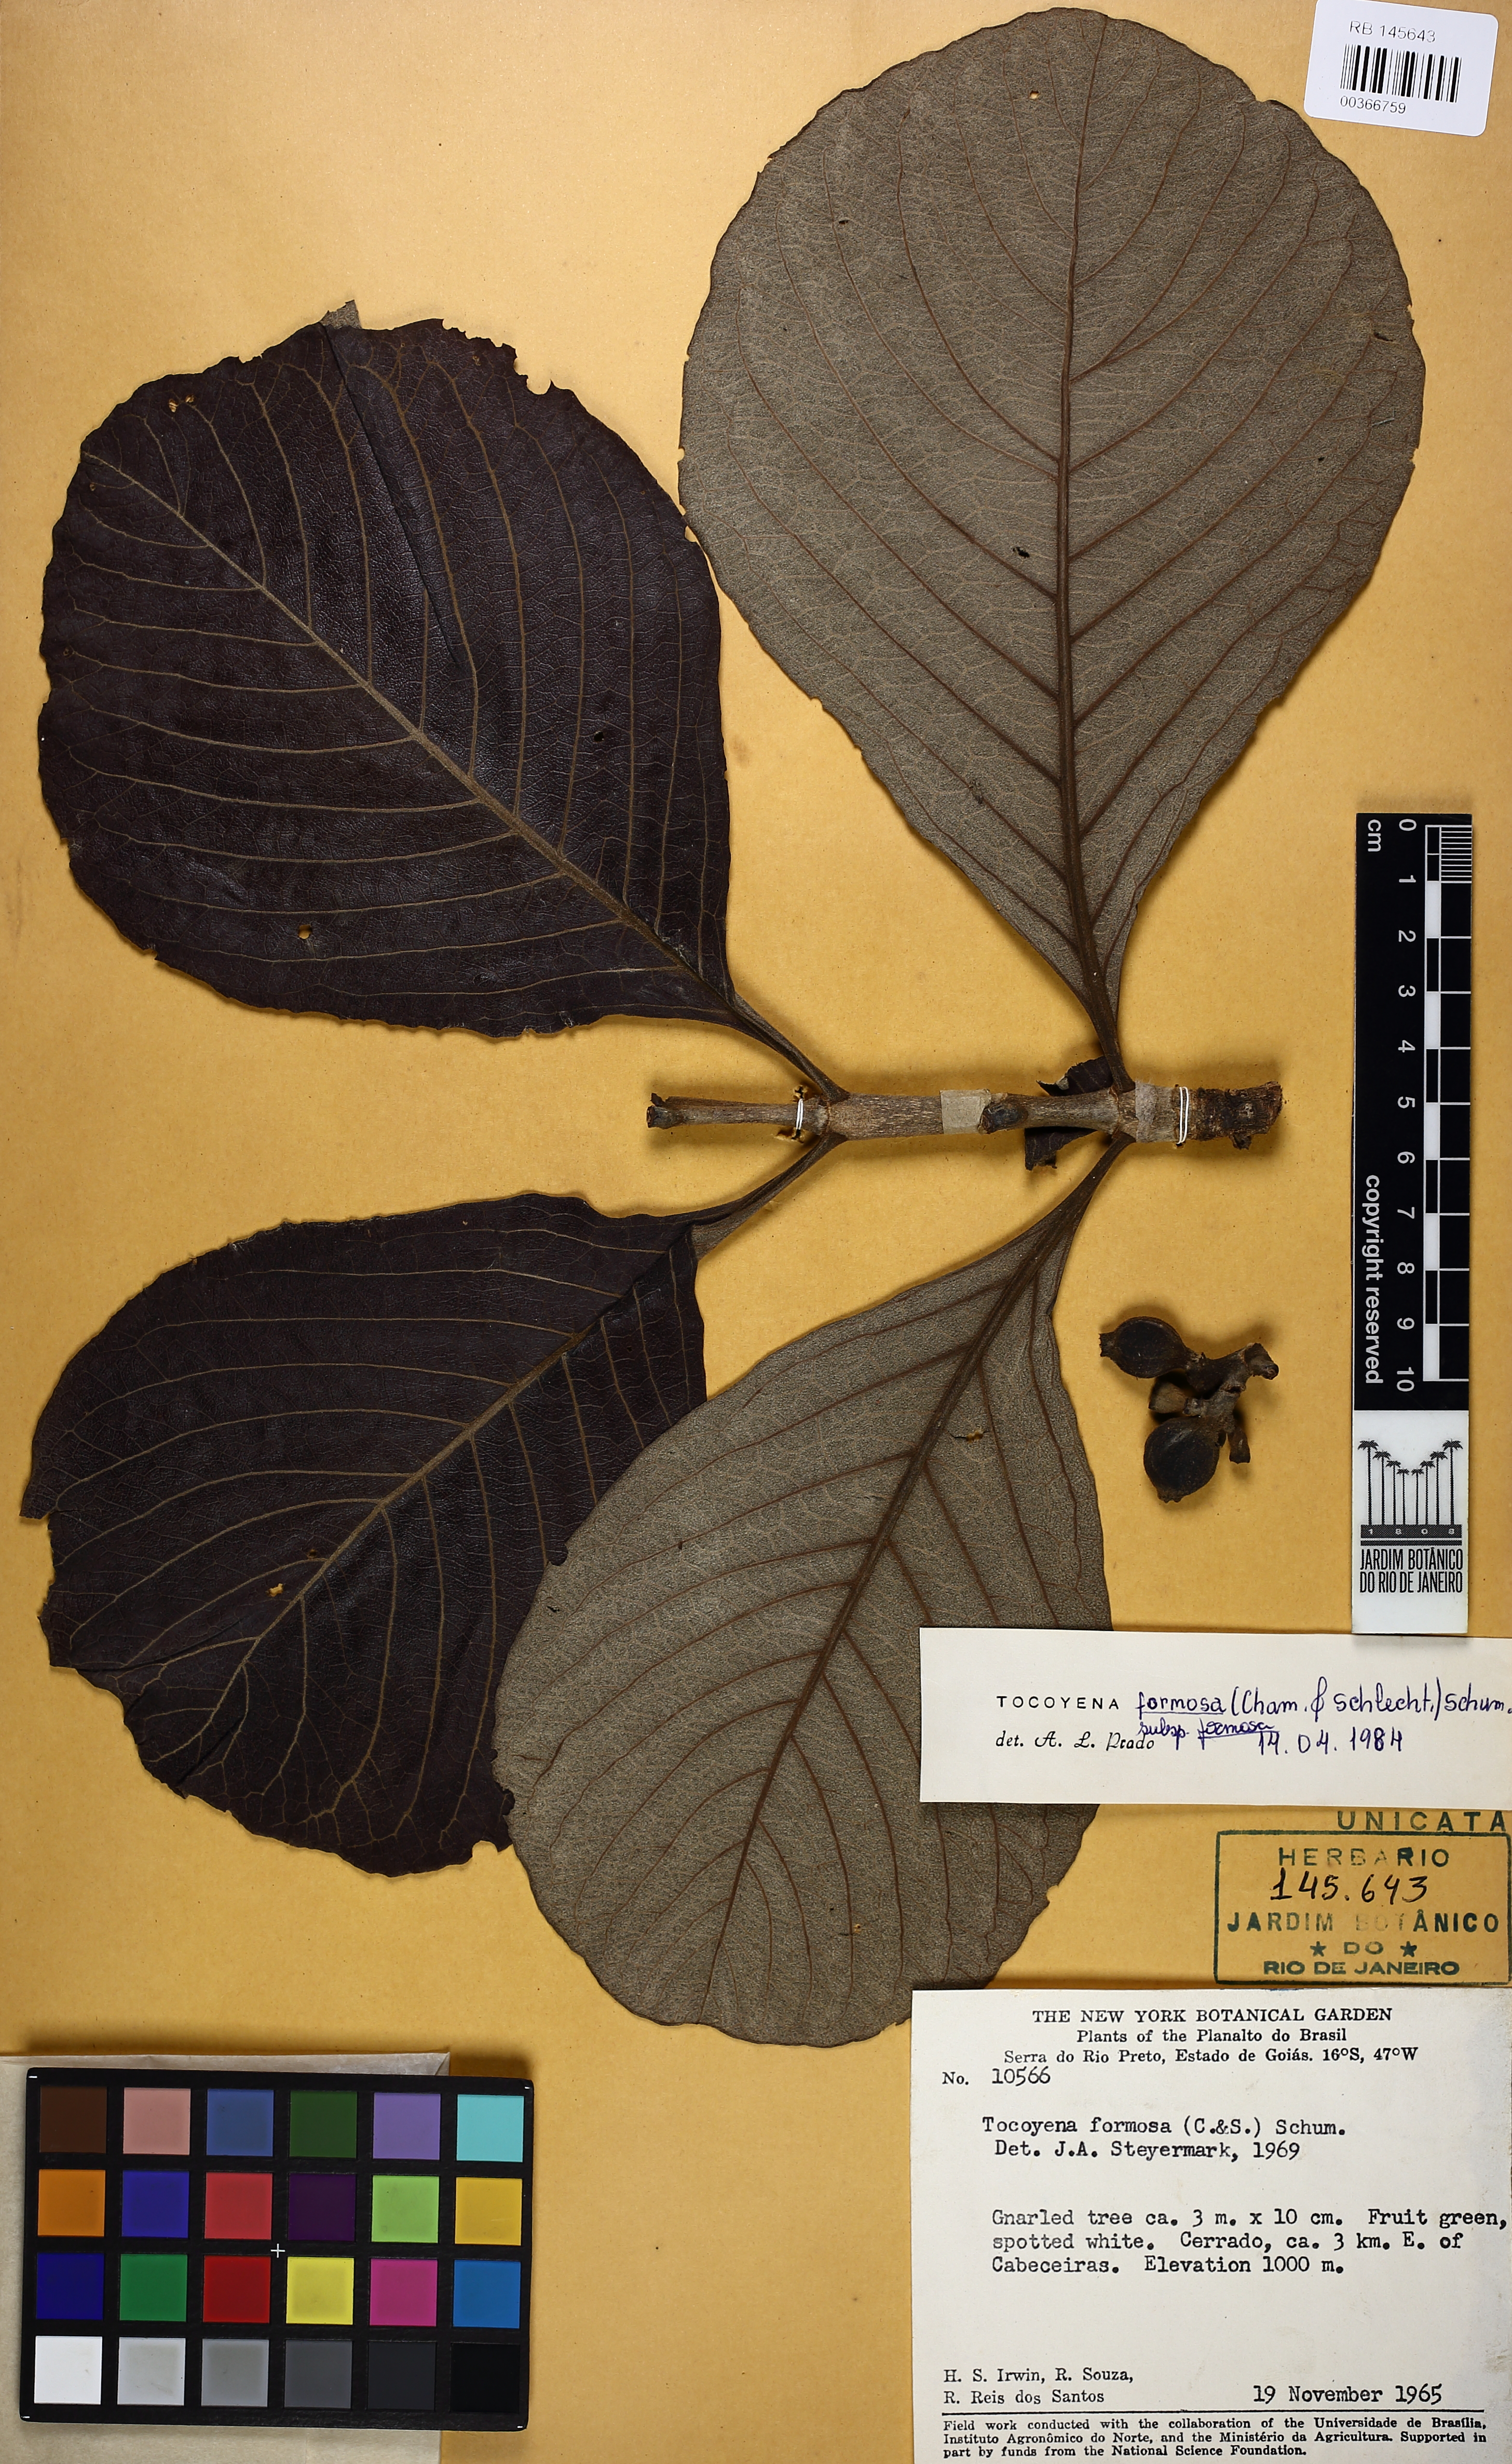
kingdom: Plantae
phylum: Tracheophyta
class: Magnoliopsida
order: Gentianales
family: Rubiaceae
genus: Tocoyena
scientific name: Tocoyena formosa
